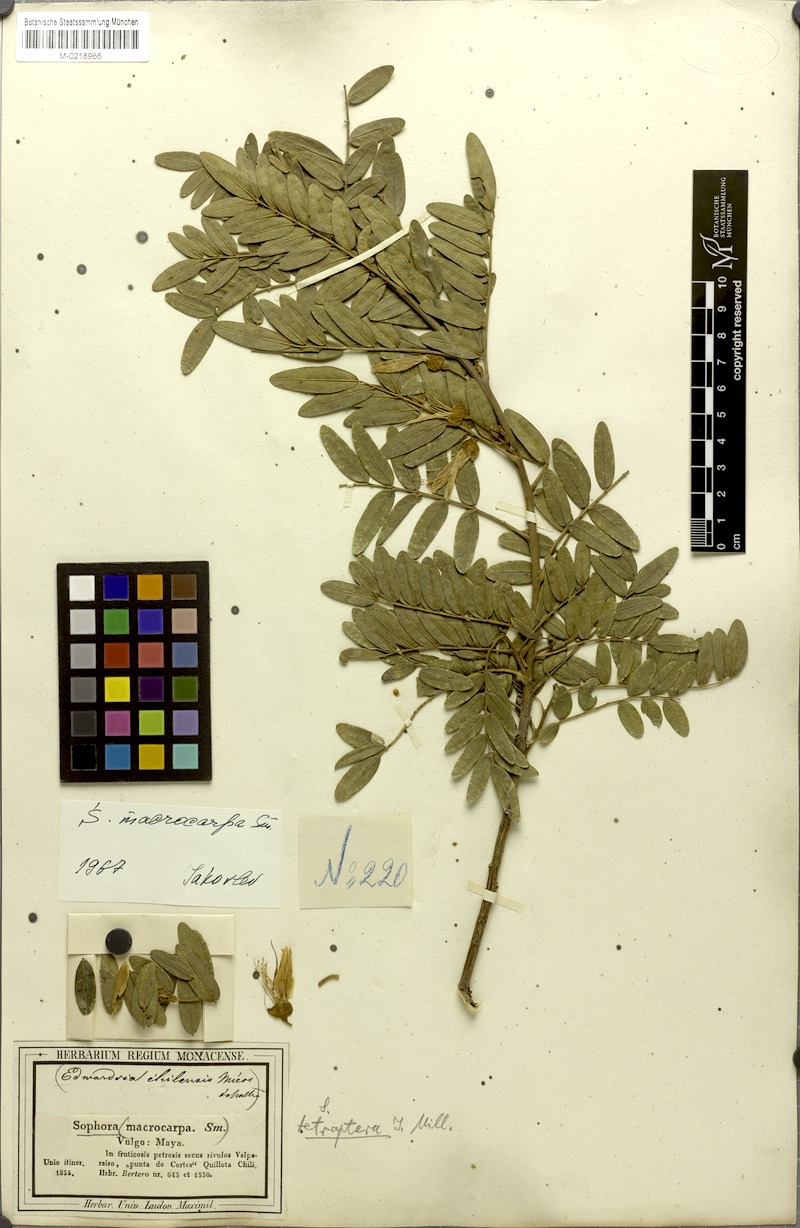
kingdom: Plantae
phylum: Tracheophyta
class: Magnoliopsida
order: Fabales
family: Fabaceae
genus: Sophora
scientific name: Sophora macrocarpa
